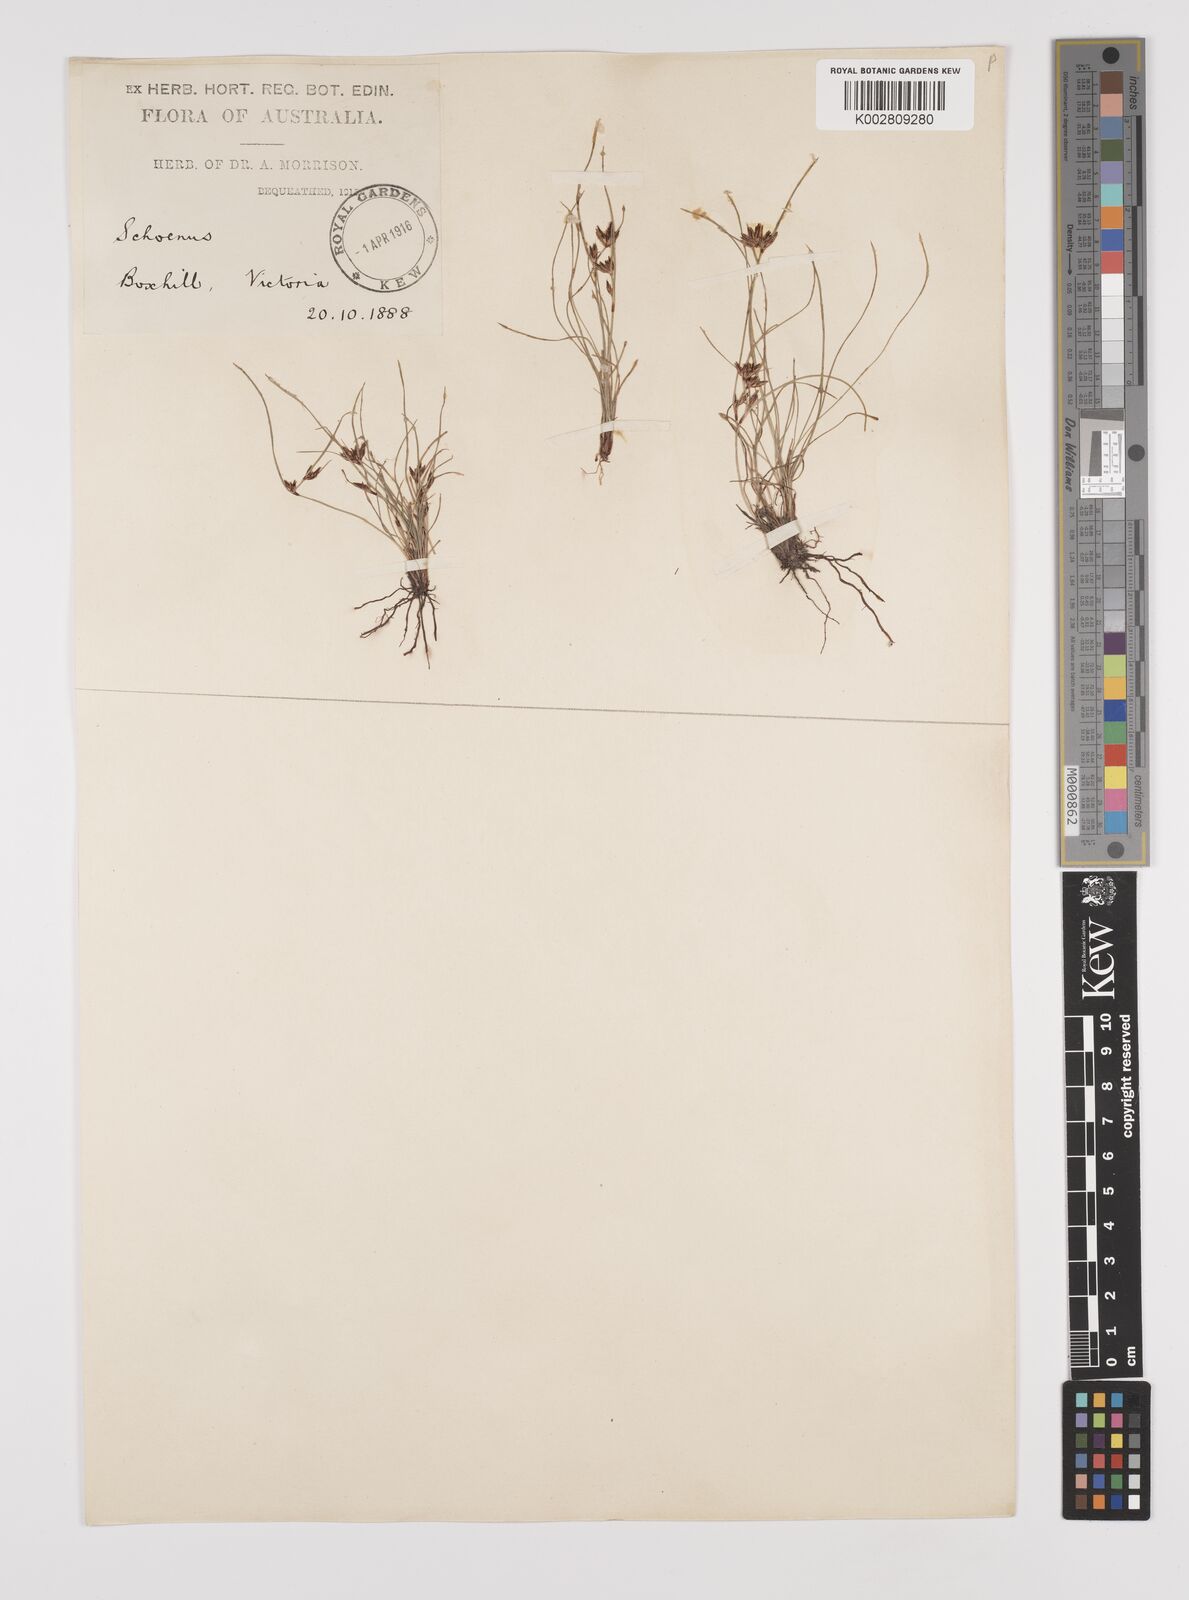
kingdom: Plantae
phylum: Tracheophyta
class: Liliopsida
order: Poales
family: Cyperaceae
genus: Schoenus
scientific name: Schoenus apogon
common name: Smooth bogrush
